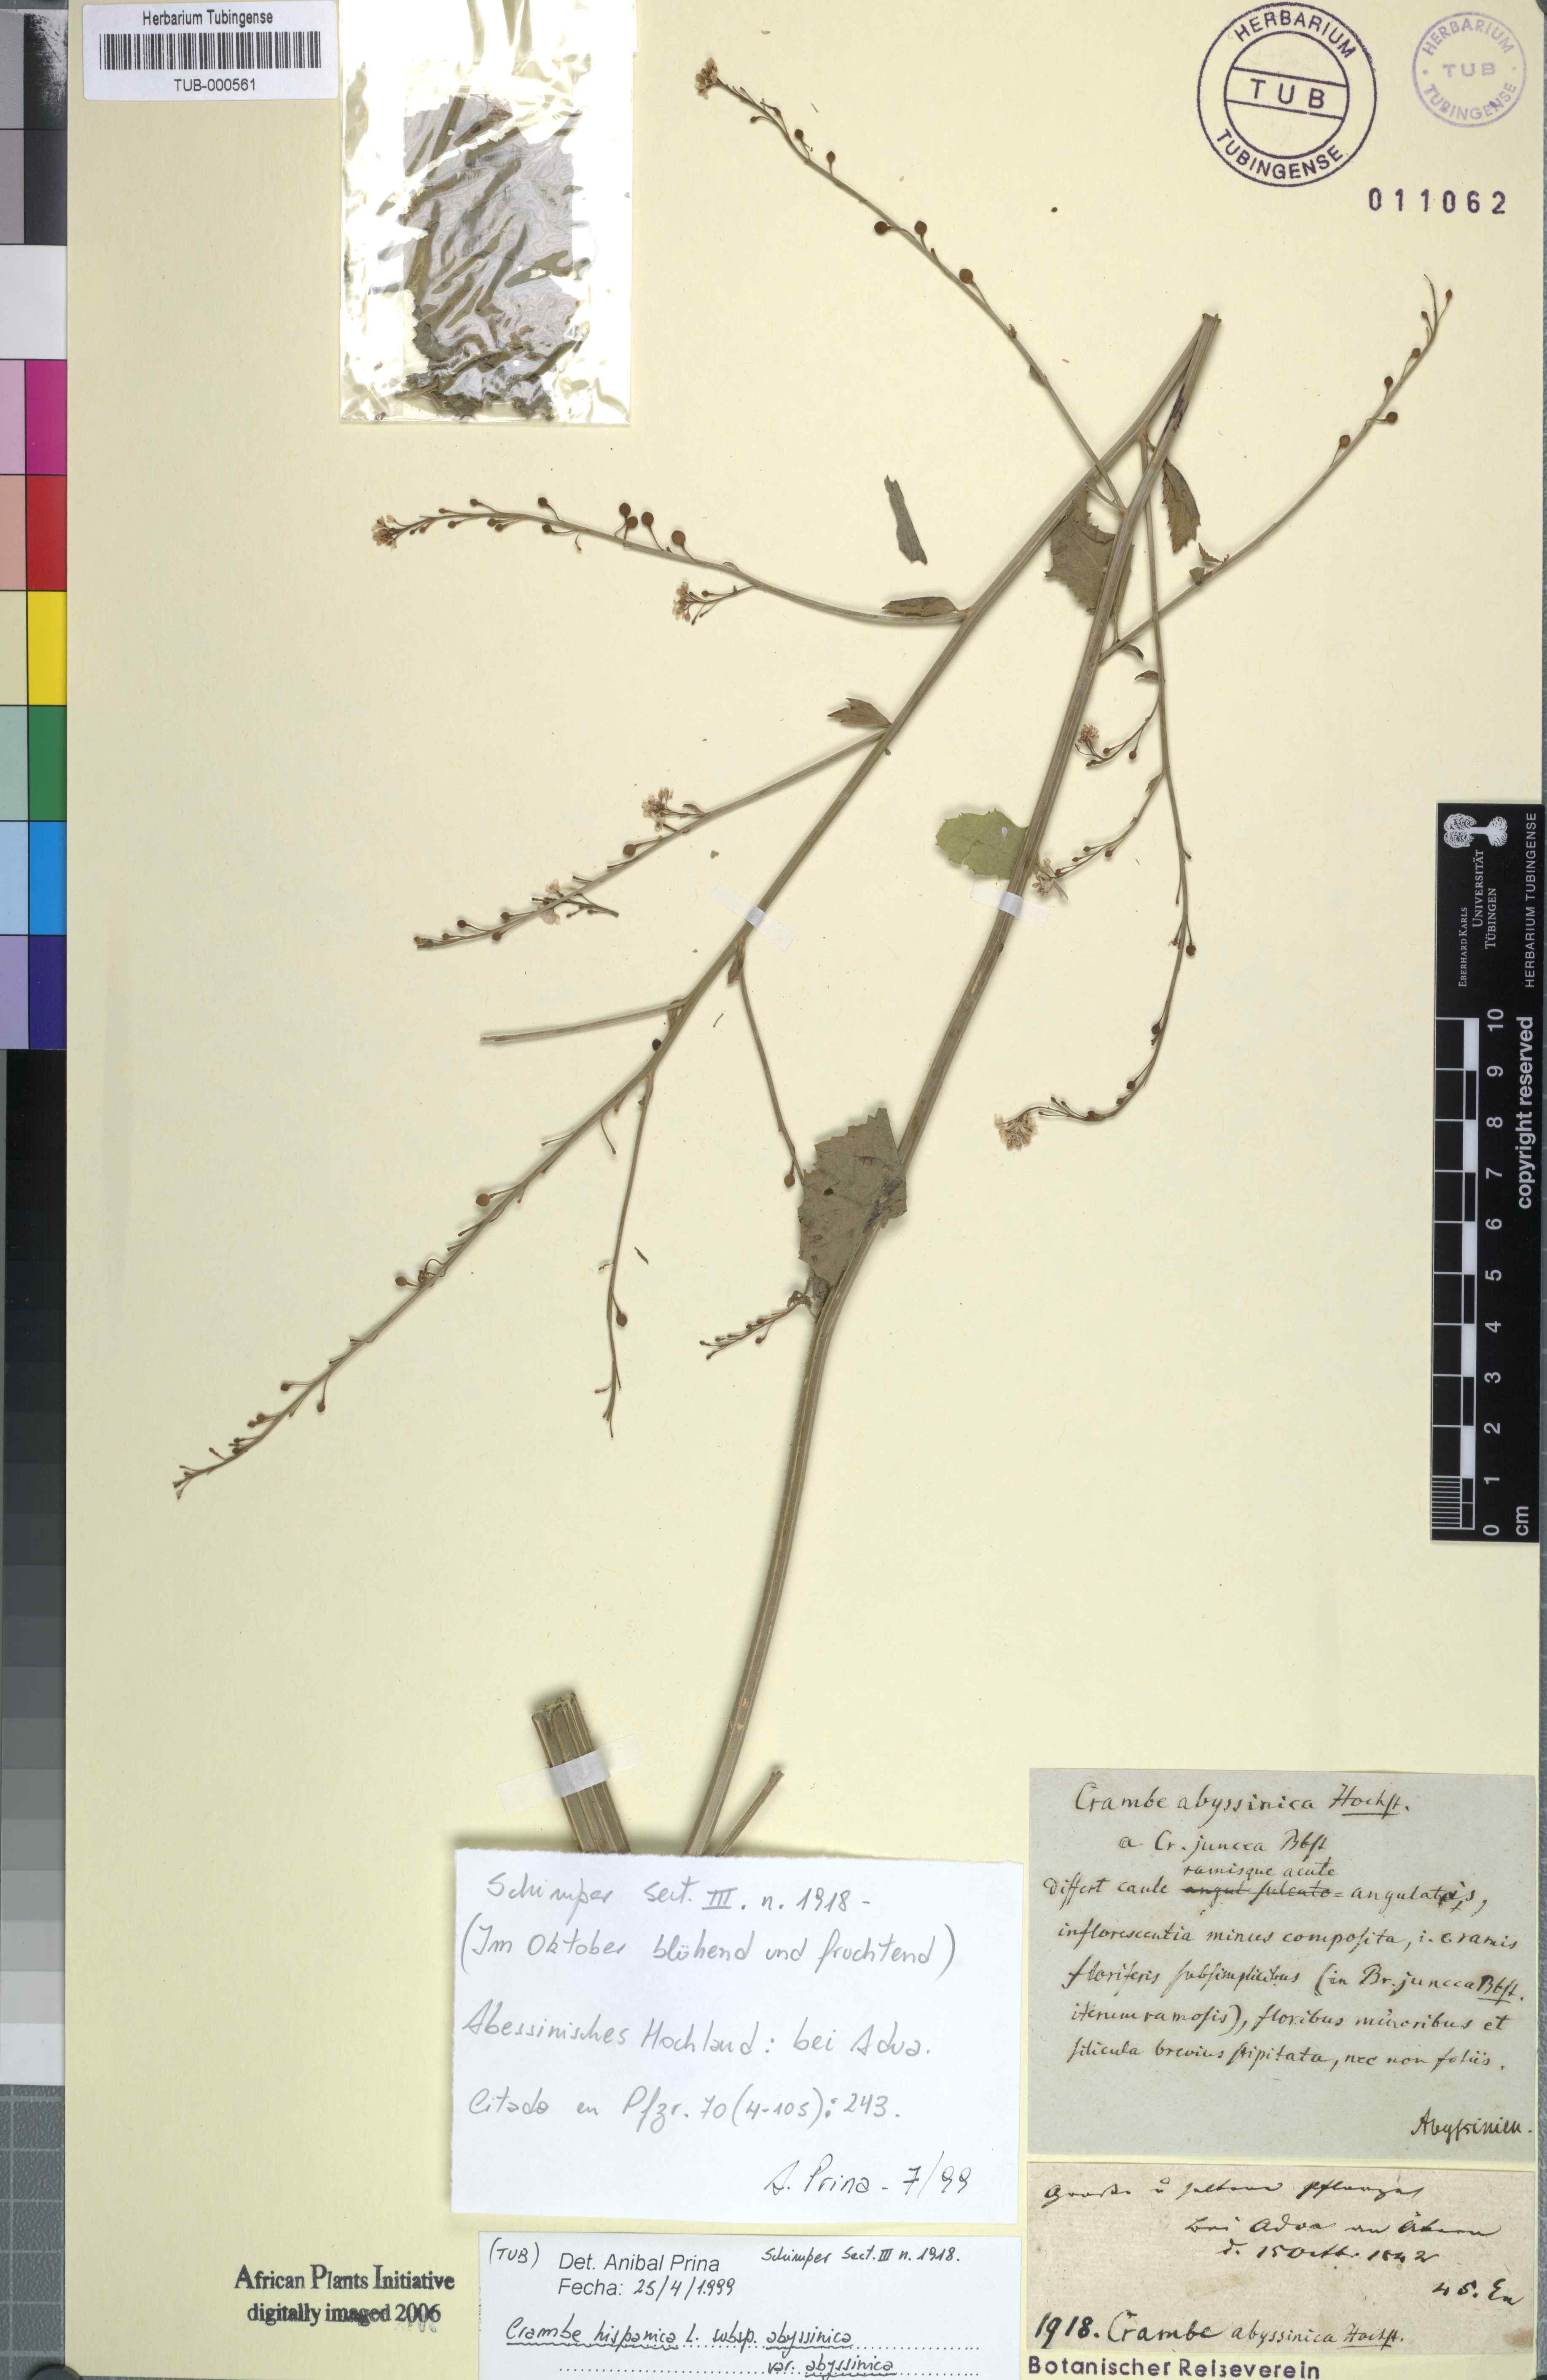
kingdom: Plantae
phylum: Tracheophyta
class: Magnoliopsida
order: Brassicales
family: Brassicaceae
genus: Crambe
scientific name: Crambe hispanica
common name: Abyssinian mustard
